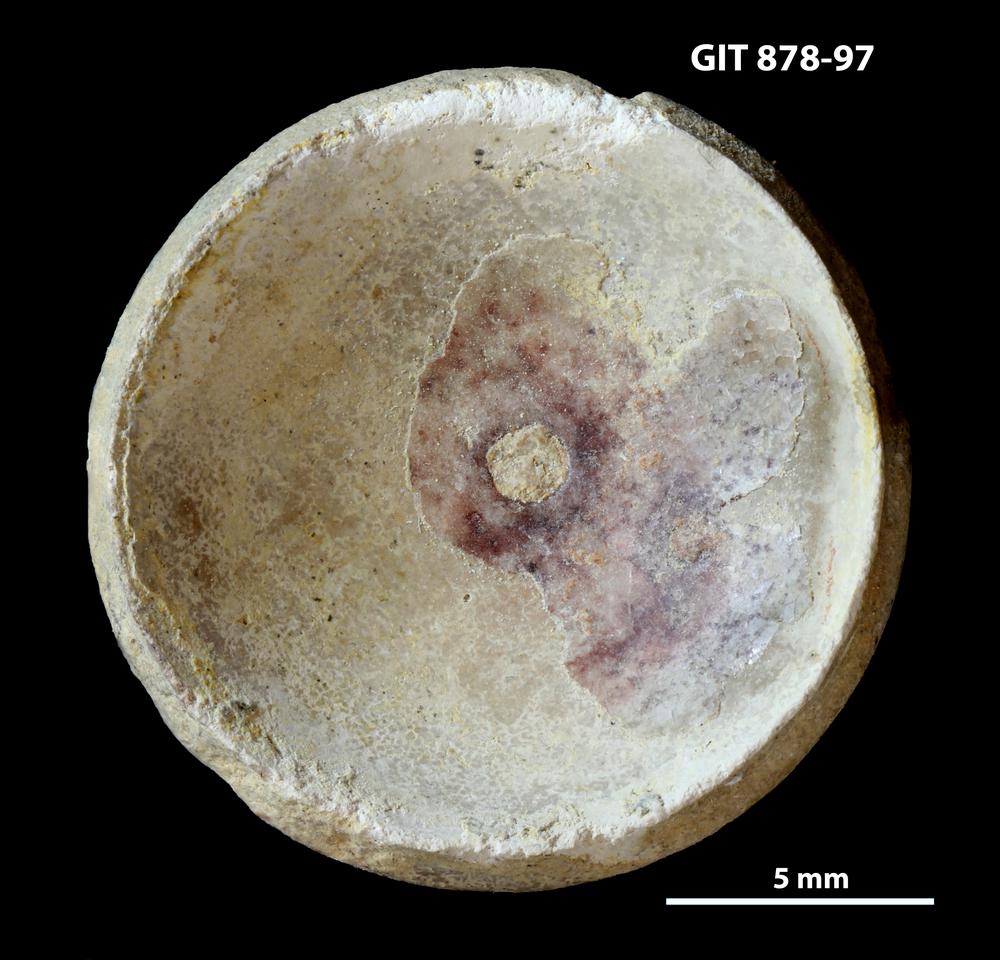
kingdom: Animalia
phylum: Mollusca
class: Cephalopoda
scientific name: Cephalopoda
